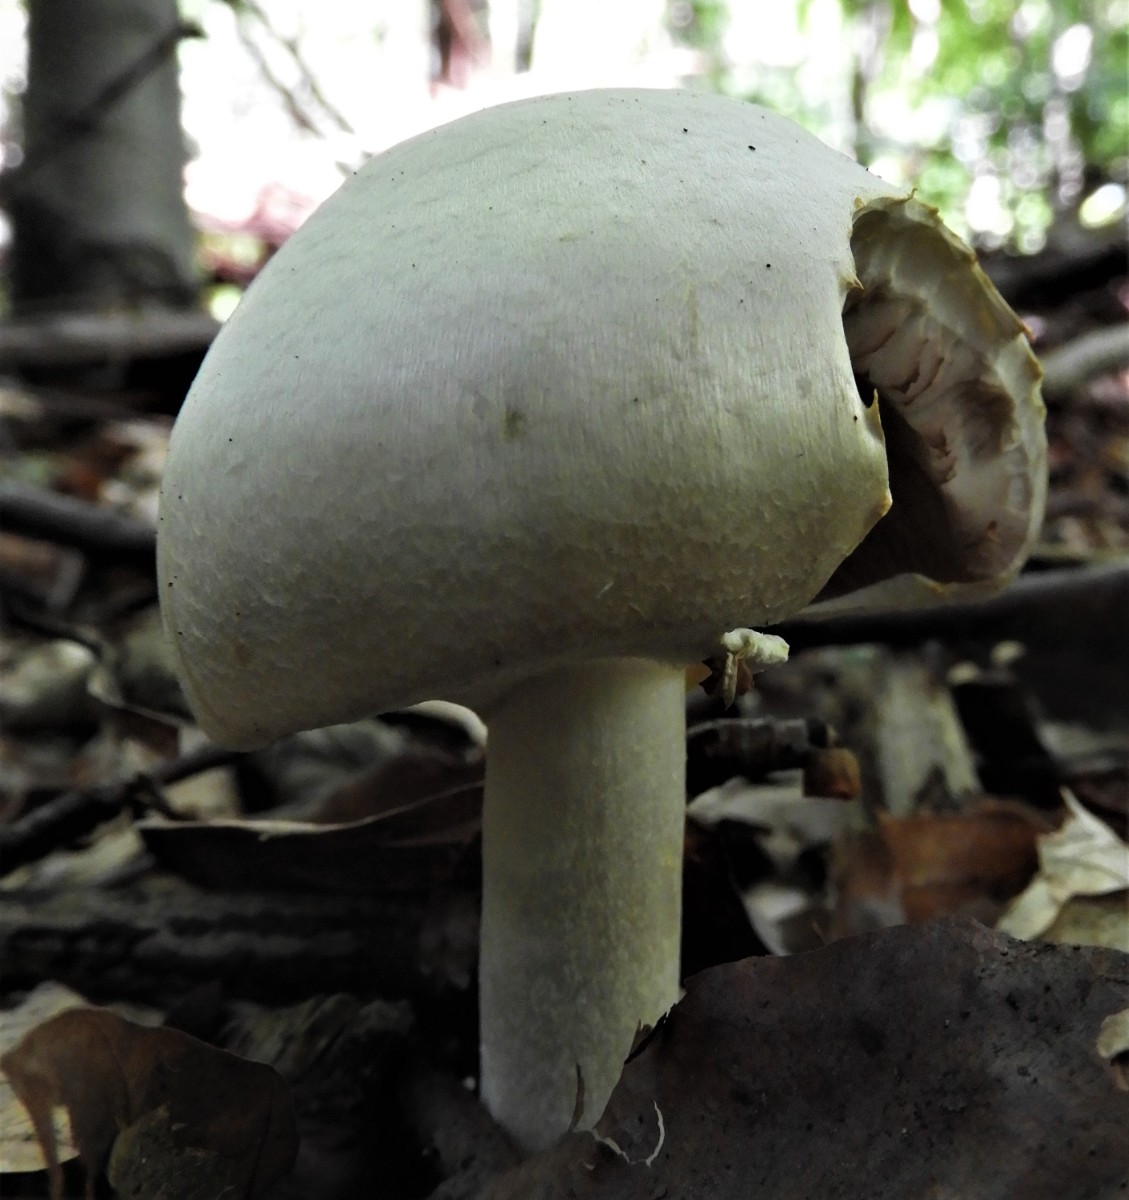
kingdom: Fungi
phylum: Basidiomycota
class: Agaricomycetes
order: Agaricales
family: Agaricaceae
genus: Agaricus
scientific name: Agaricus sylvicola
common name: gulhvid champignon
